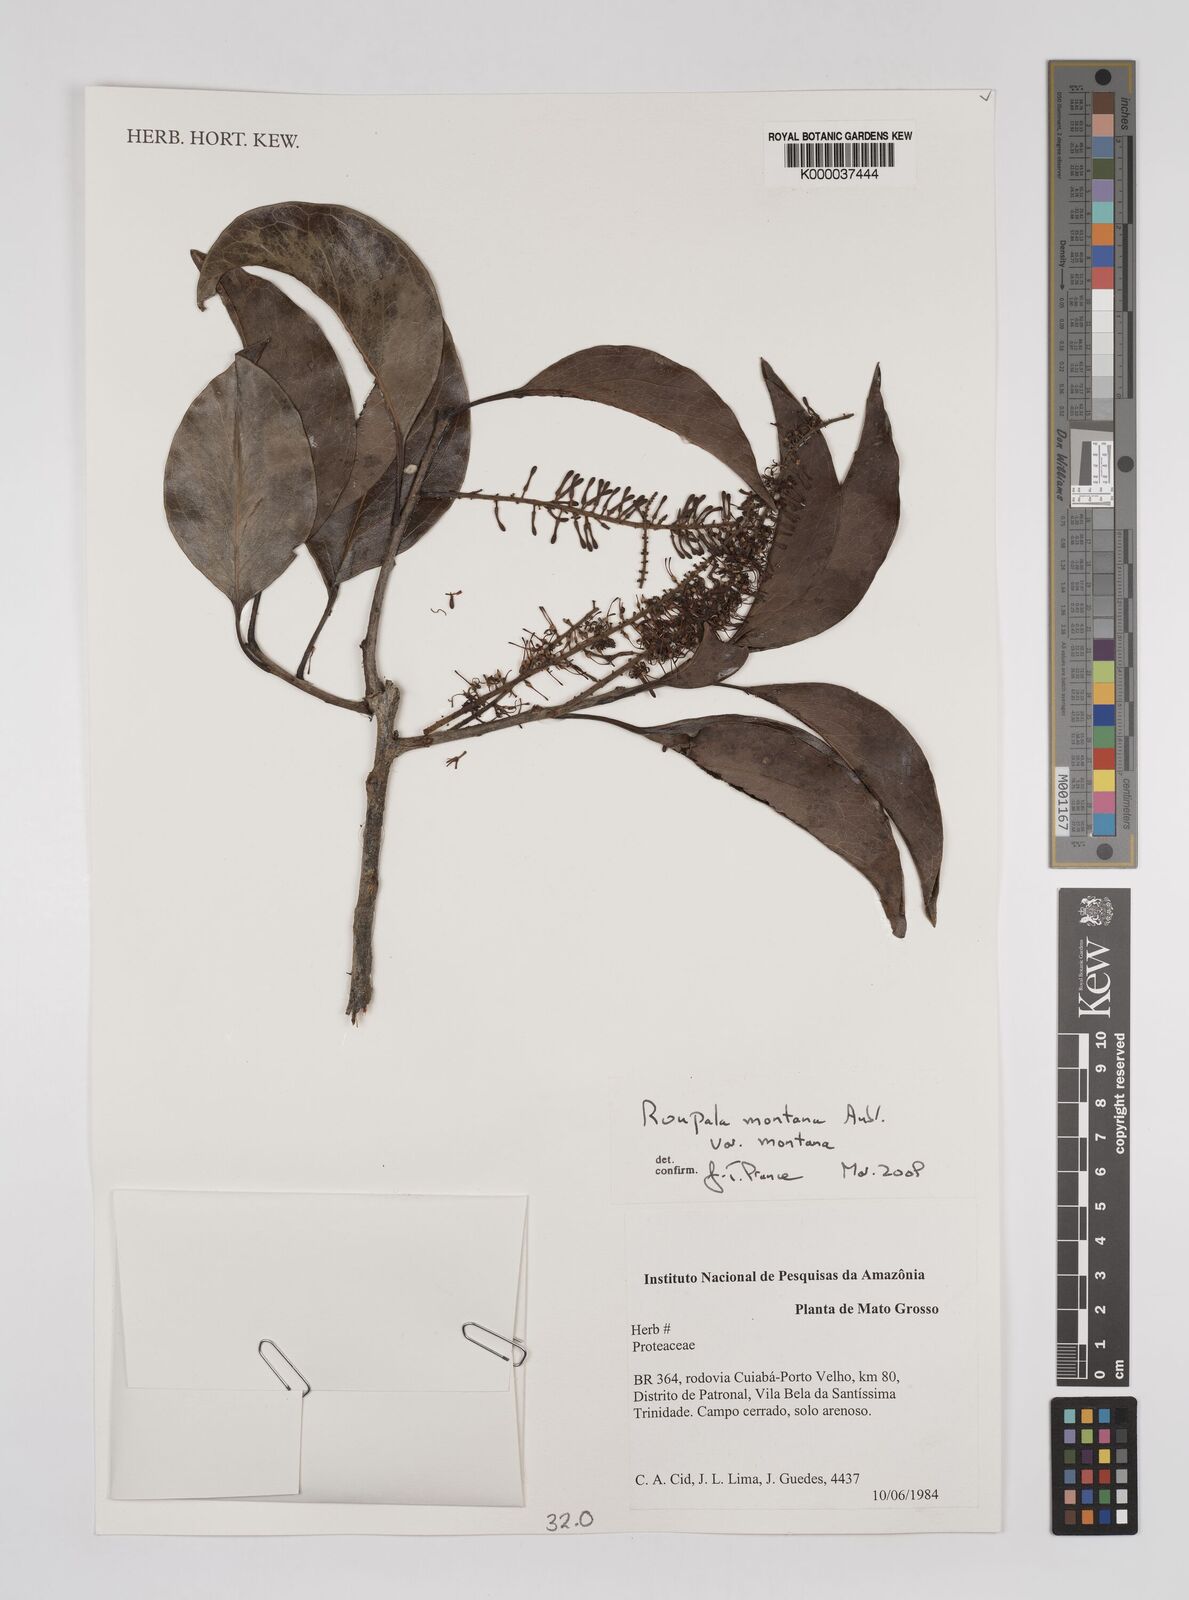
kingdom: Plantae
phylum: Tracheophyta
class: Magnoliopsida
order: Proteales
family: Proteaceae
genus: Roupala
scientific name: Roupala montana
